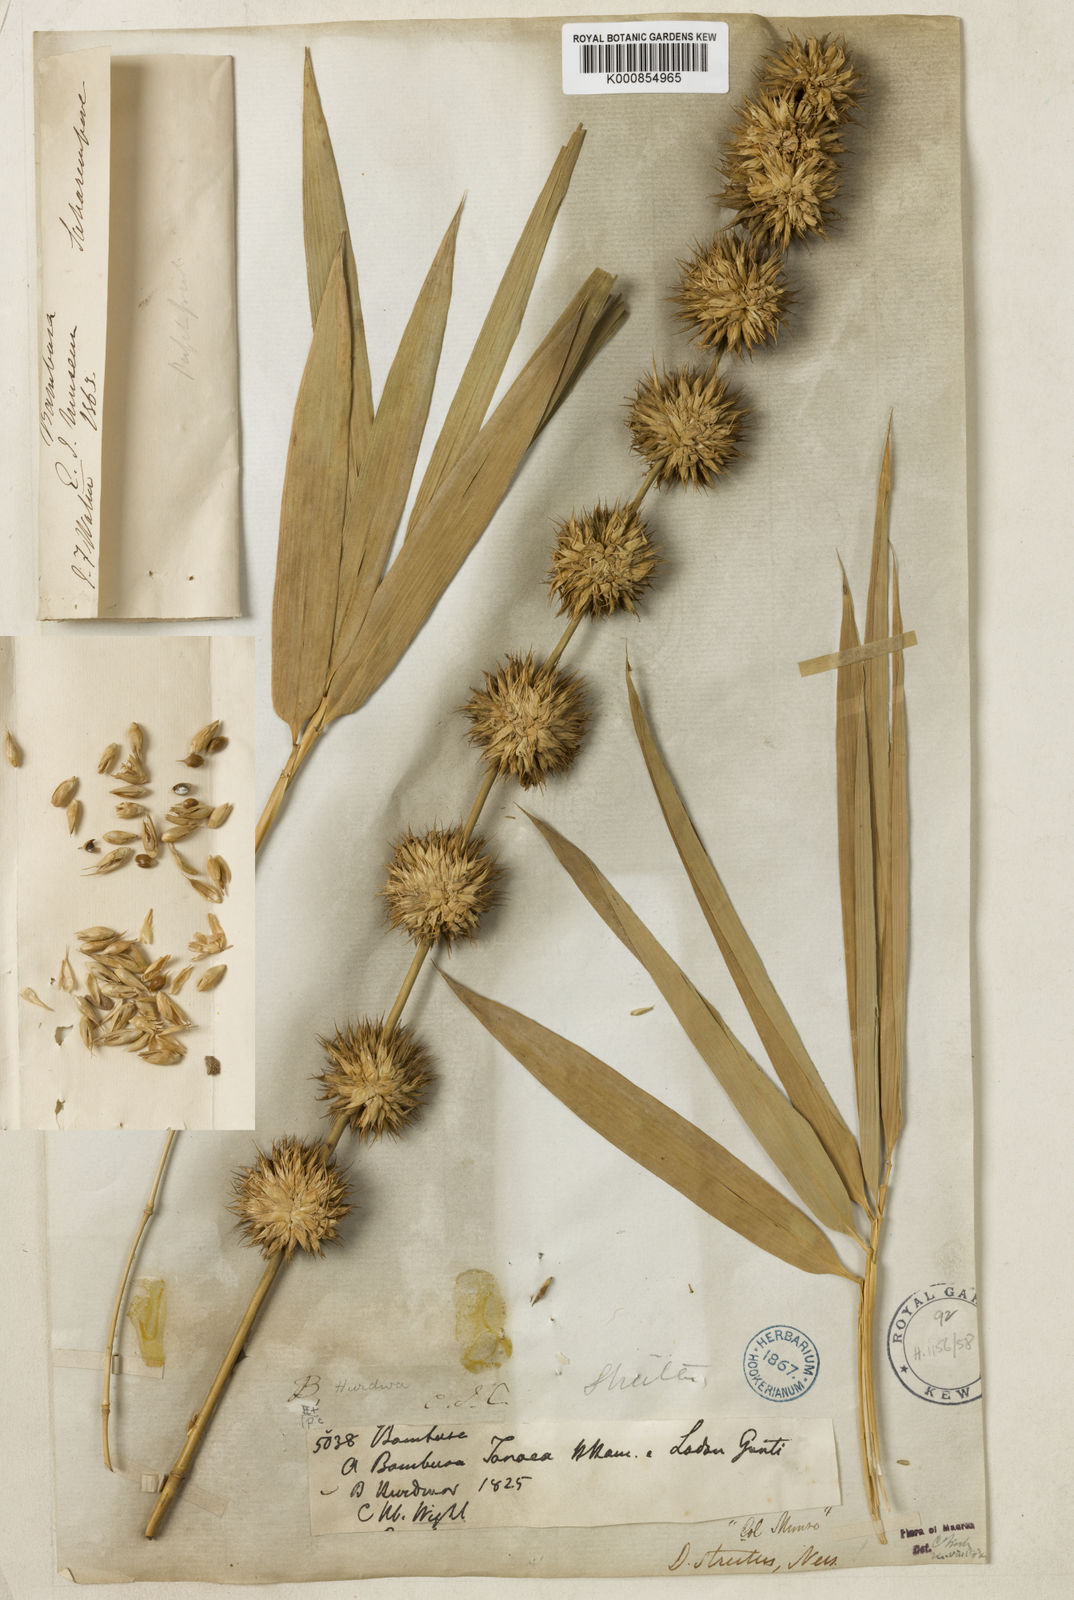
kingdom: Plantae
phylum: Tracheophyta
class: Liliopsida
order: Poales
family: Poaceae
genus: Dendrocalamus
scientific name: Dendrocalamus strictus
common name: Male bamboo
